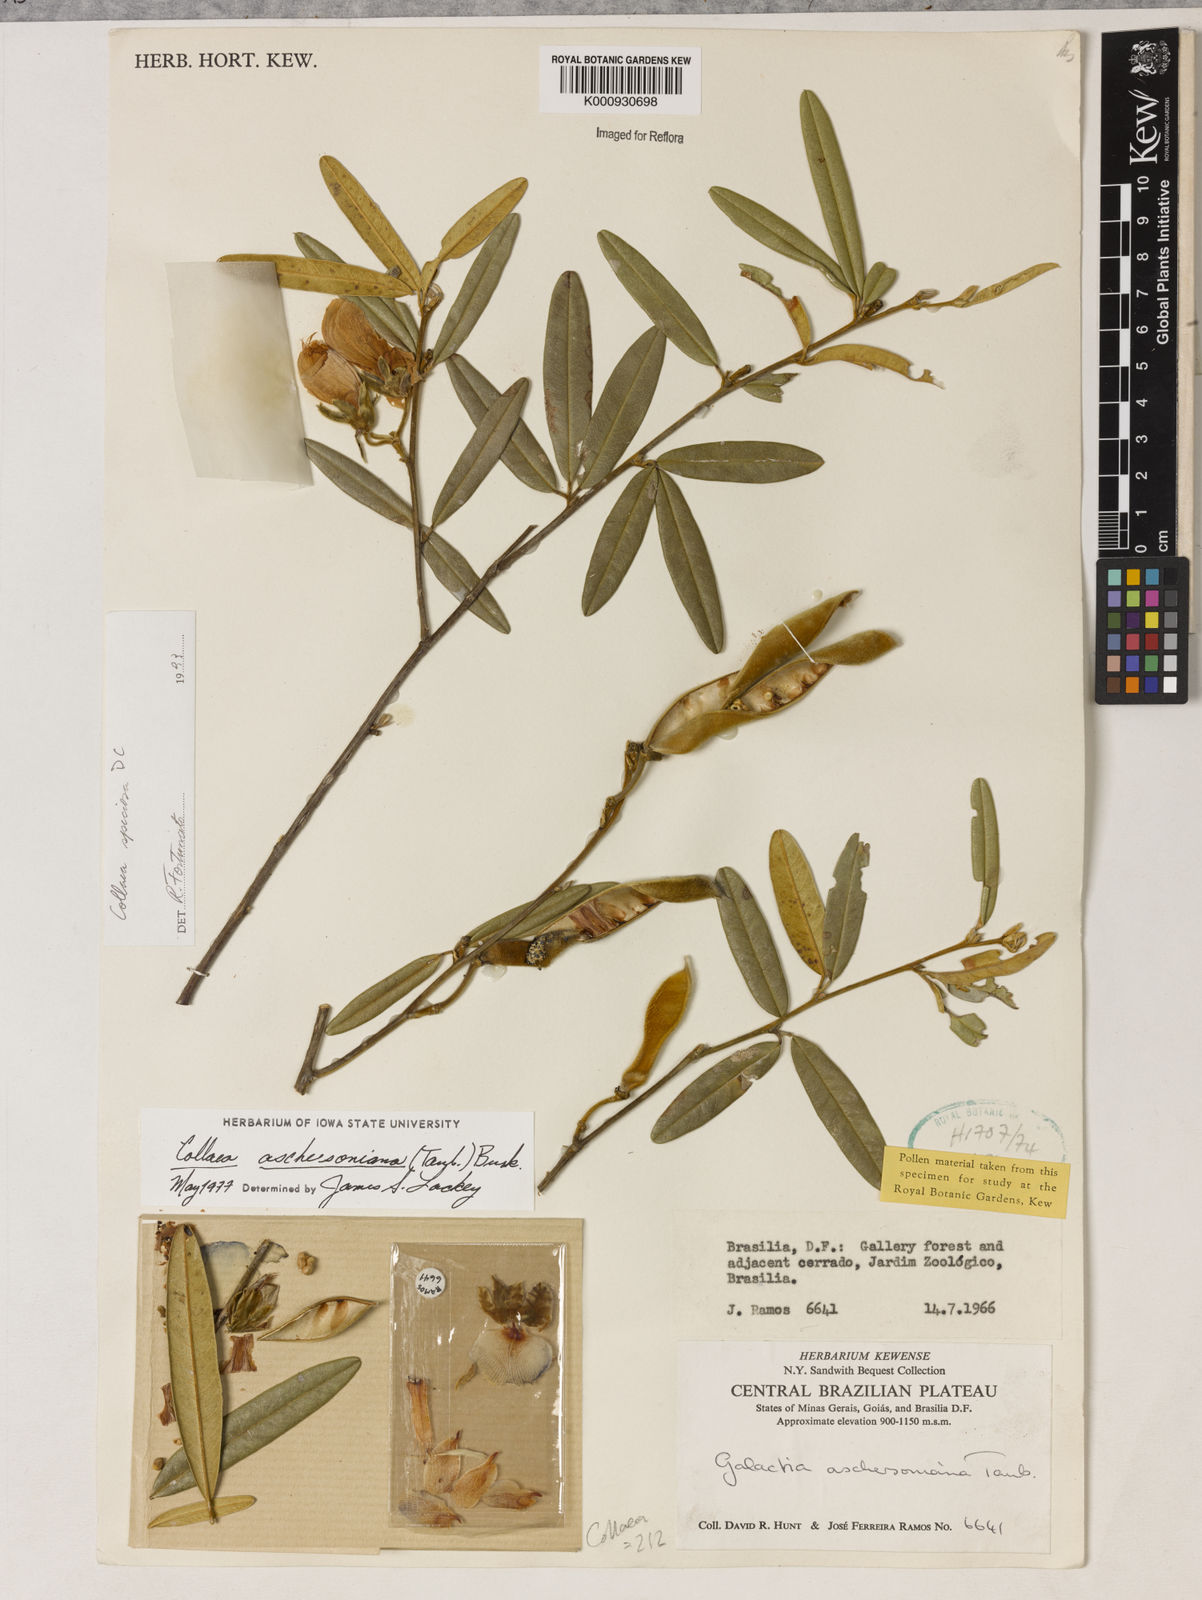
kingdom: Plantae
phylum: Tracheophyta
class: Magnoliopsida
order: Lamiales
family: Lamiaceae
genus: Coleus
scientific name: Coleus barbatus
